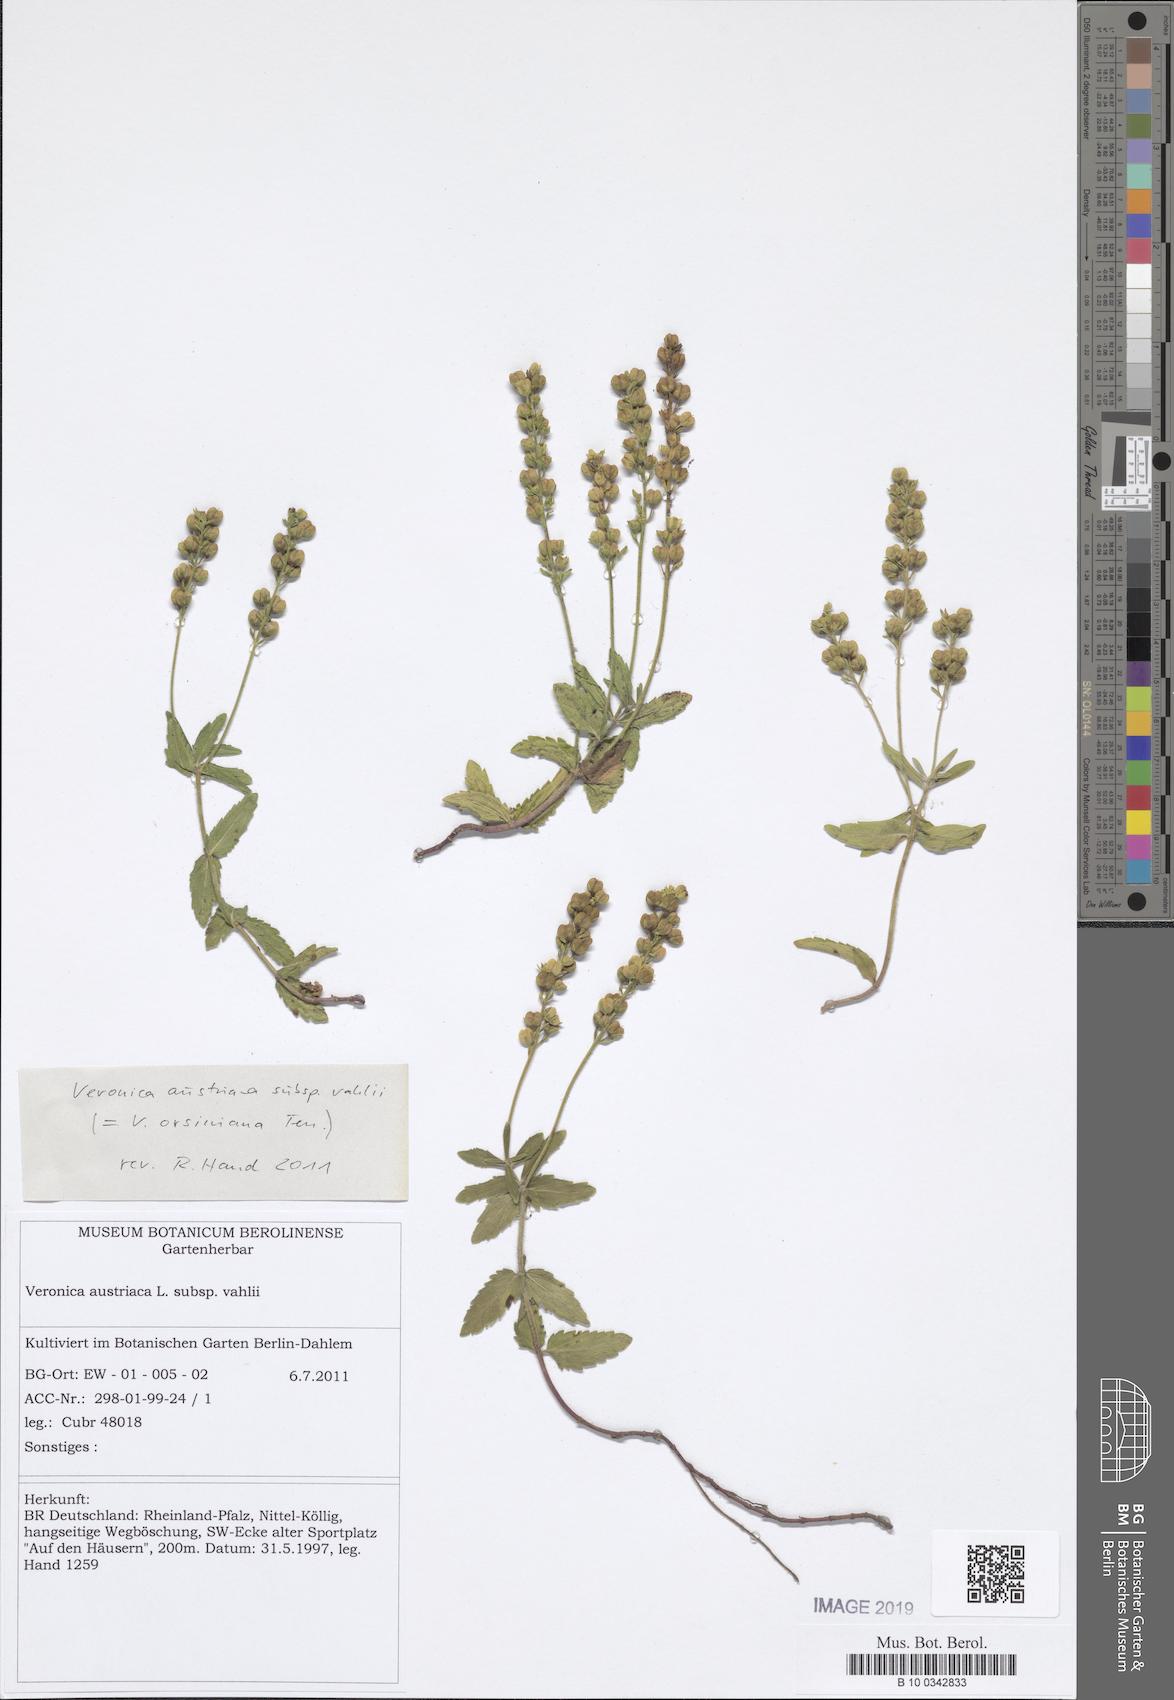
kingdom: Plantae
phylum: Tracheophyta
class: Magnoliopsida
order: Lamiales
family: Plantaginaceae
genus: Veronica
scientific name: Veronica angustifolia
